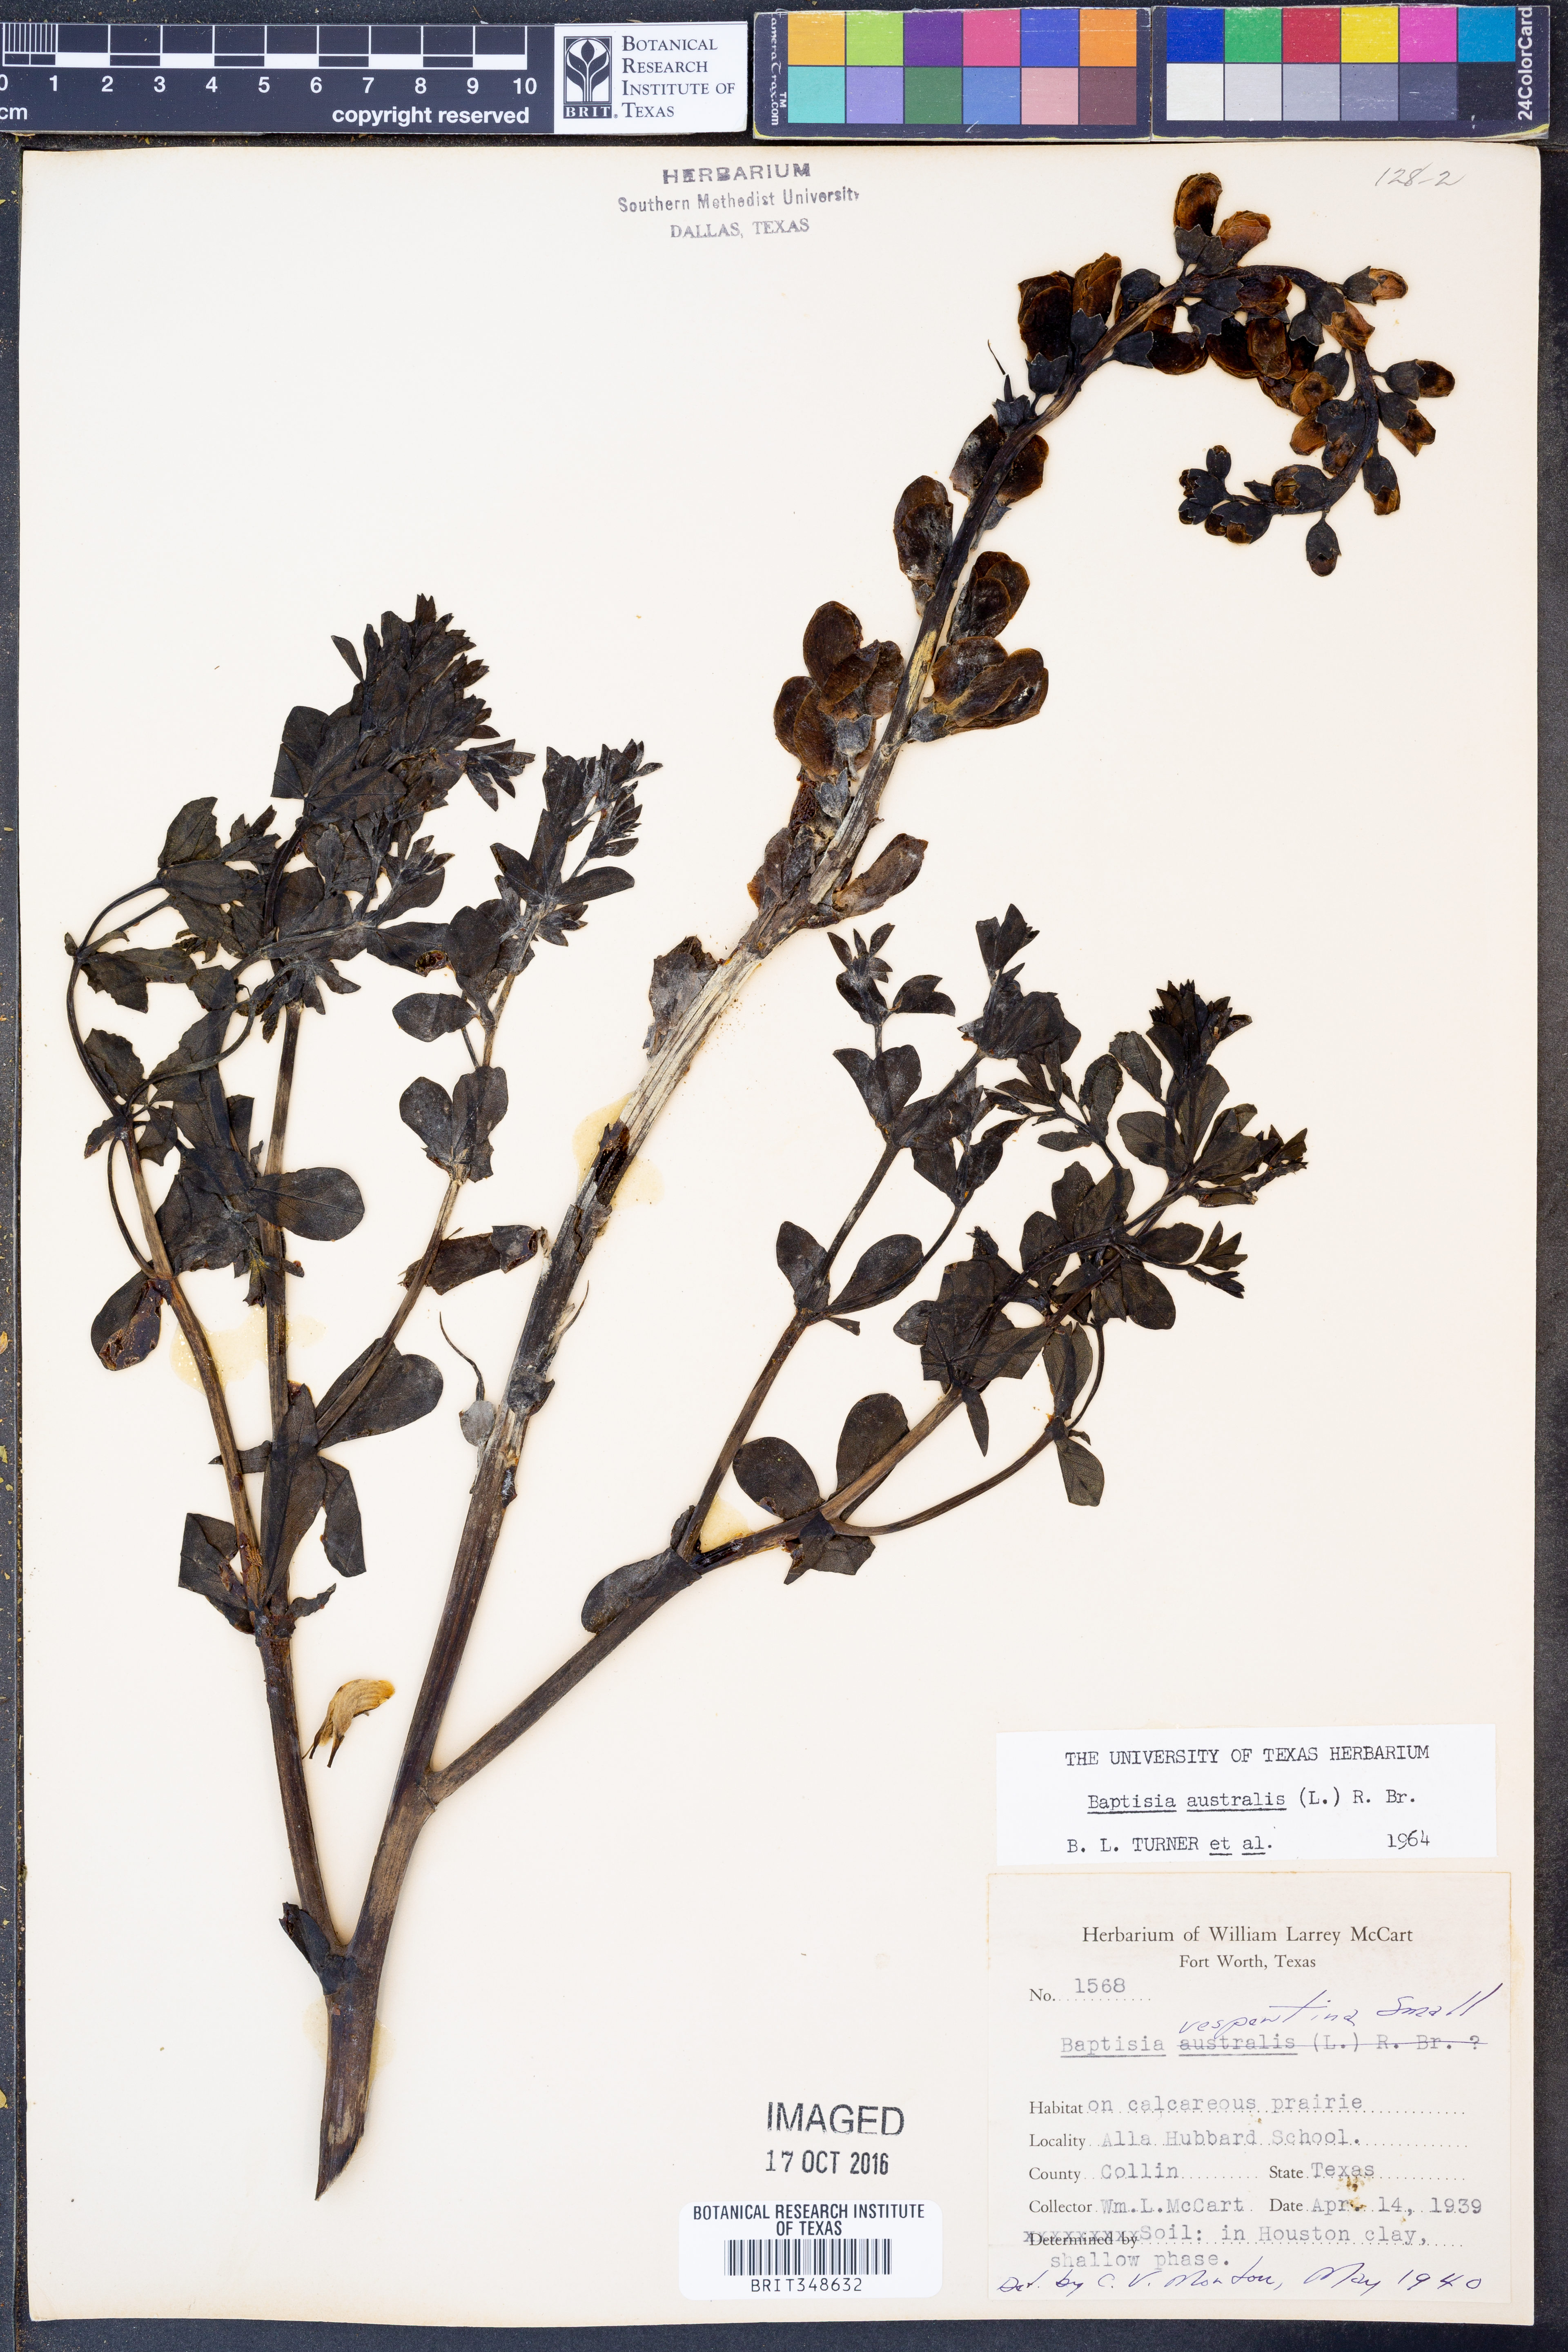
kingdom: Plantae
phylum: Tracheophyta
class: Magnoliopsida
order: Fabales
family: Fabaceae
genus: Baptisia
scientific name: Baptisia australis
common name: Blue false indigo
